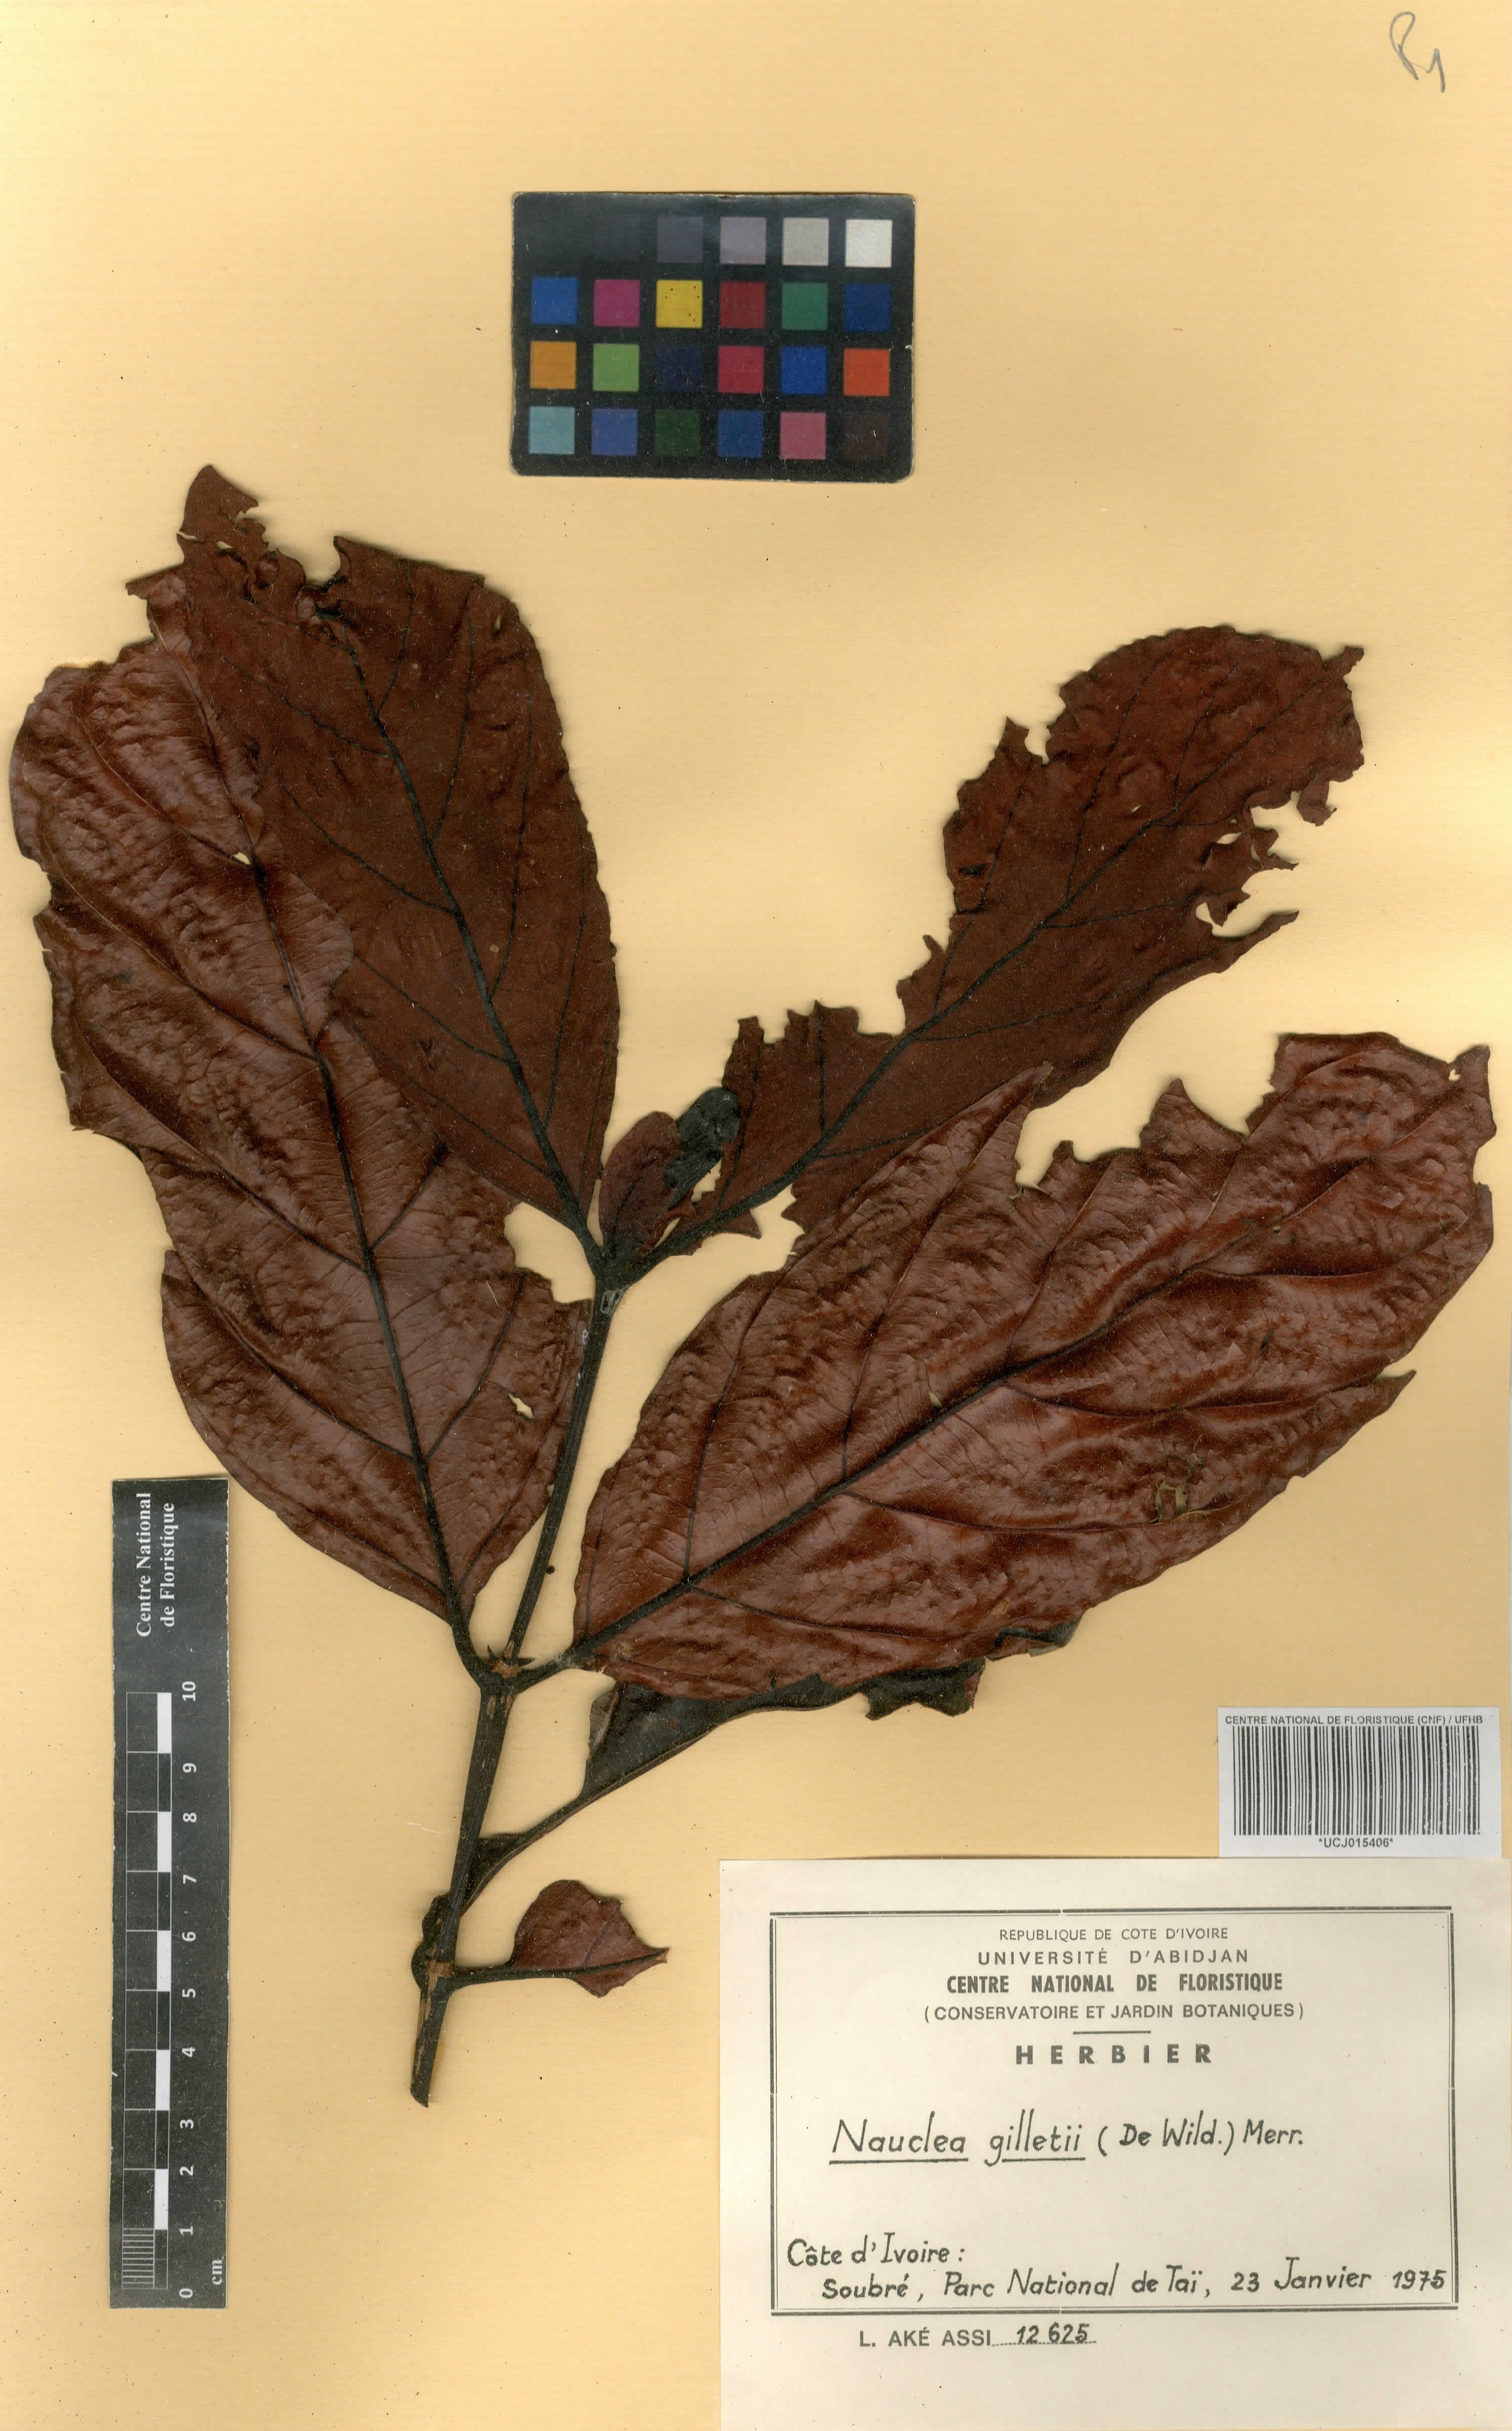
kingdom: Plantae
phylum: Tracheophyta
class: Magnoliopsida
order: Gentianales
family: Rubiaceae
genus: Nauclea
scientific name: Nauclea gilletii
